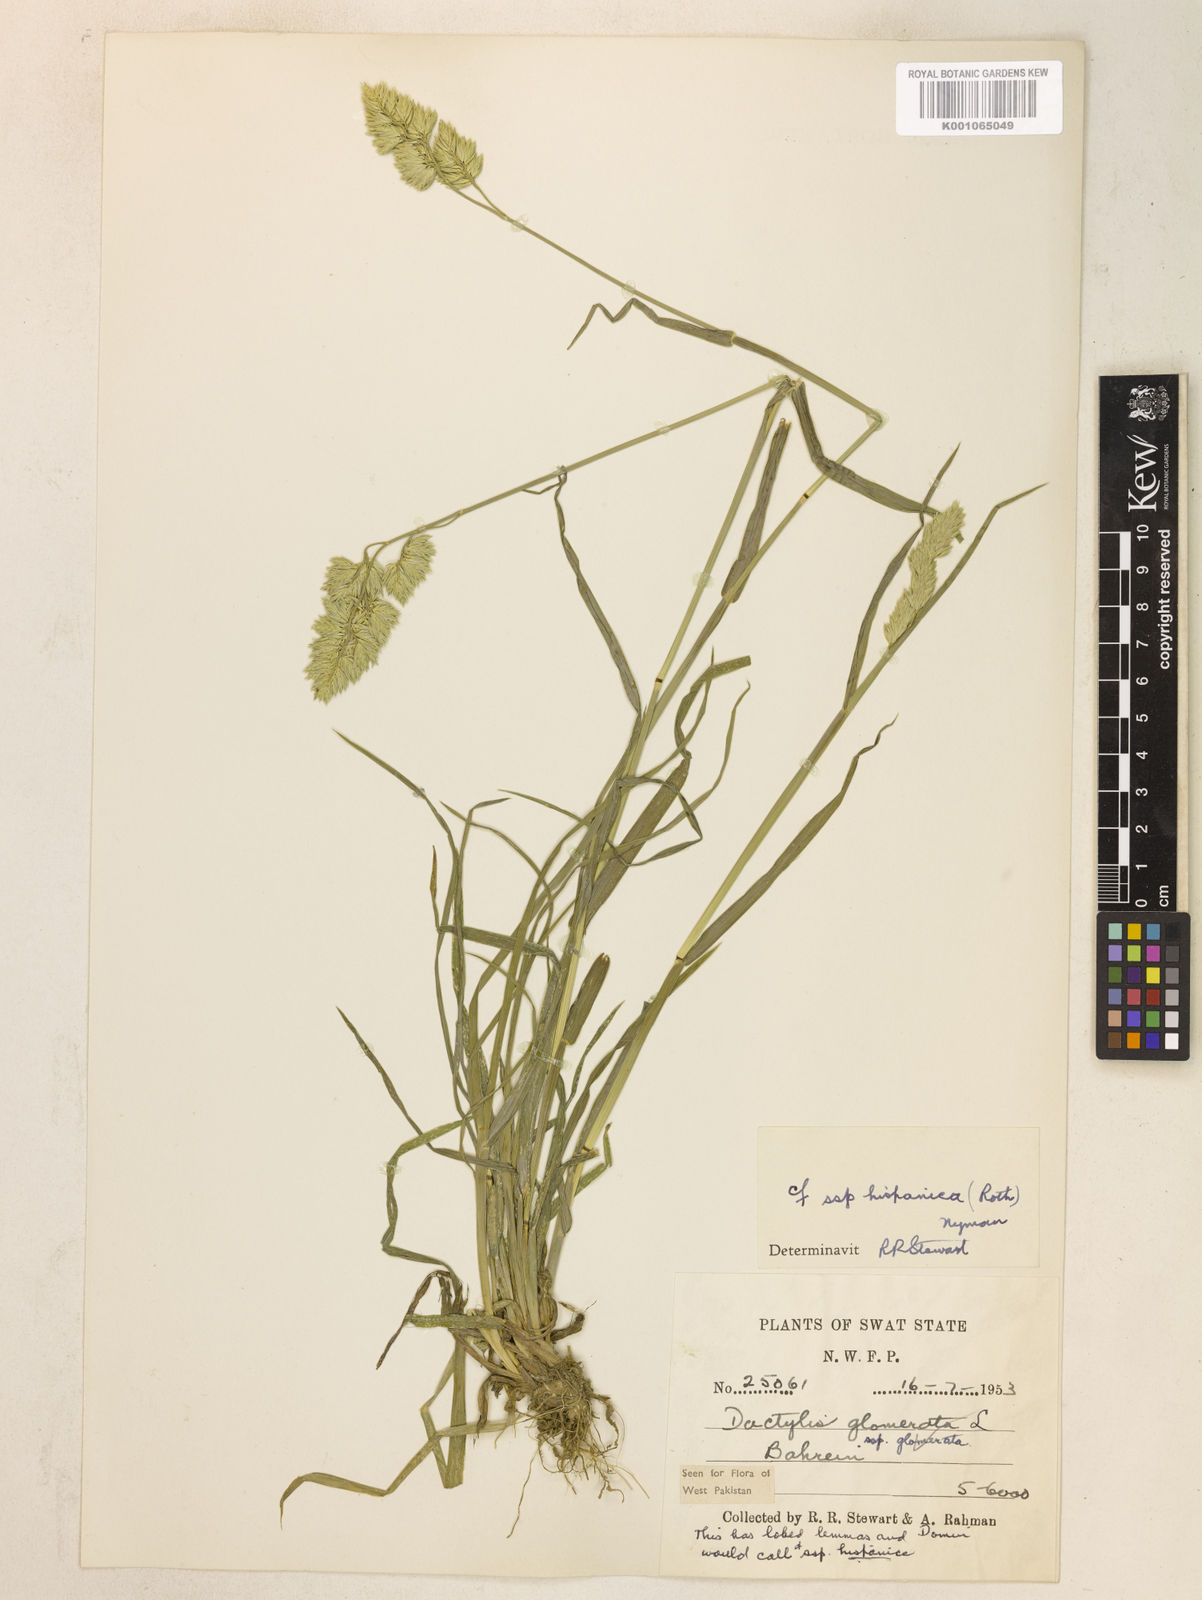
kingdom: Plantae
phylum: Tracheophyta
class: Liliopsida
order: Poales
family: Poaceae
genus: Dactylis
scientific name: Dactylis glomerata
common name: Orchardgrass
